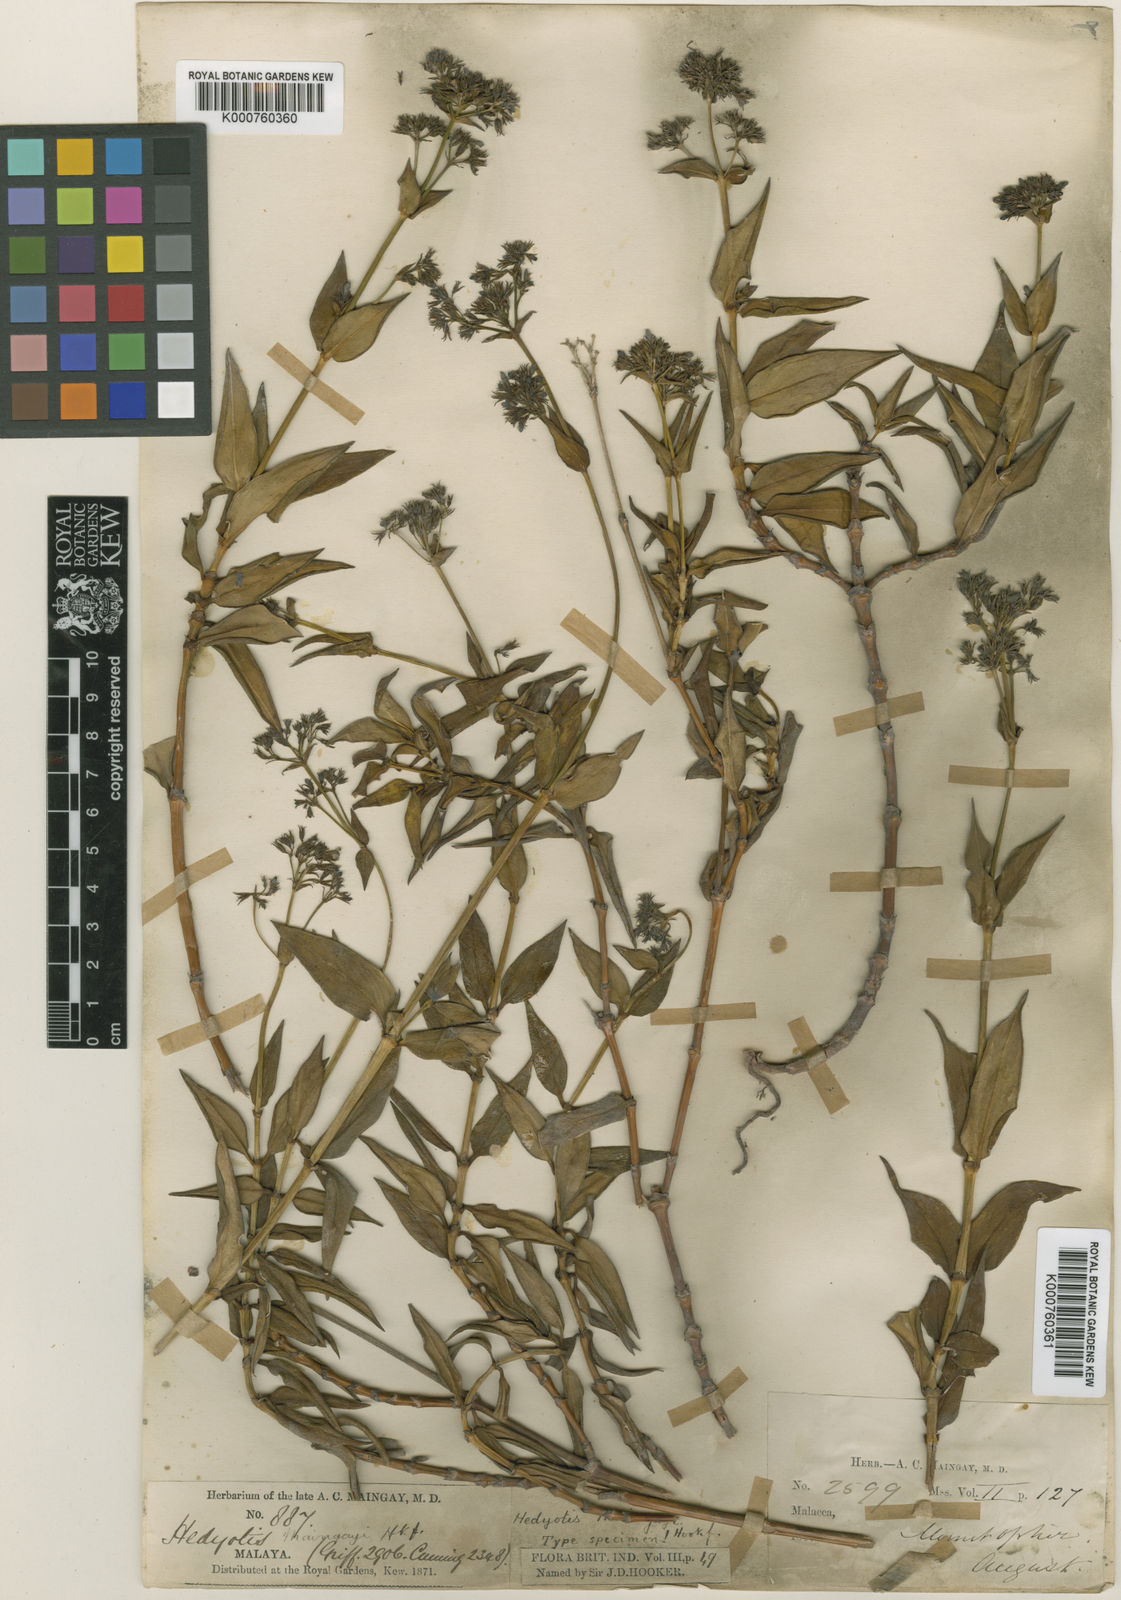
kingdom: Plantae
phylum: Tracheophyta
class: Magnoliopsida
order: Gentianales
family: Rubiaceae
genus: Hedyotis
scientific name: Hedyotis maingayi
